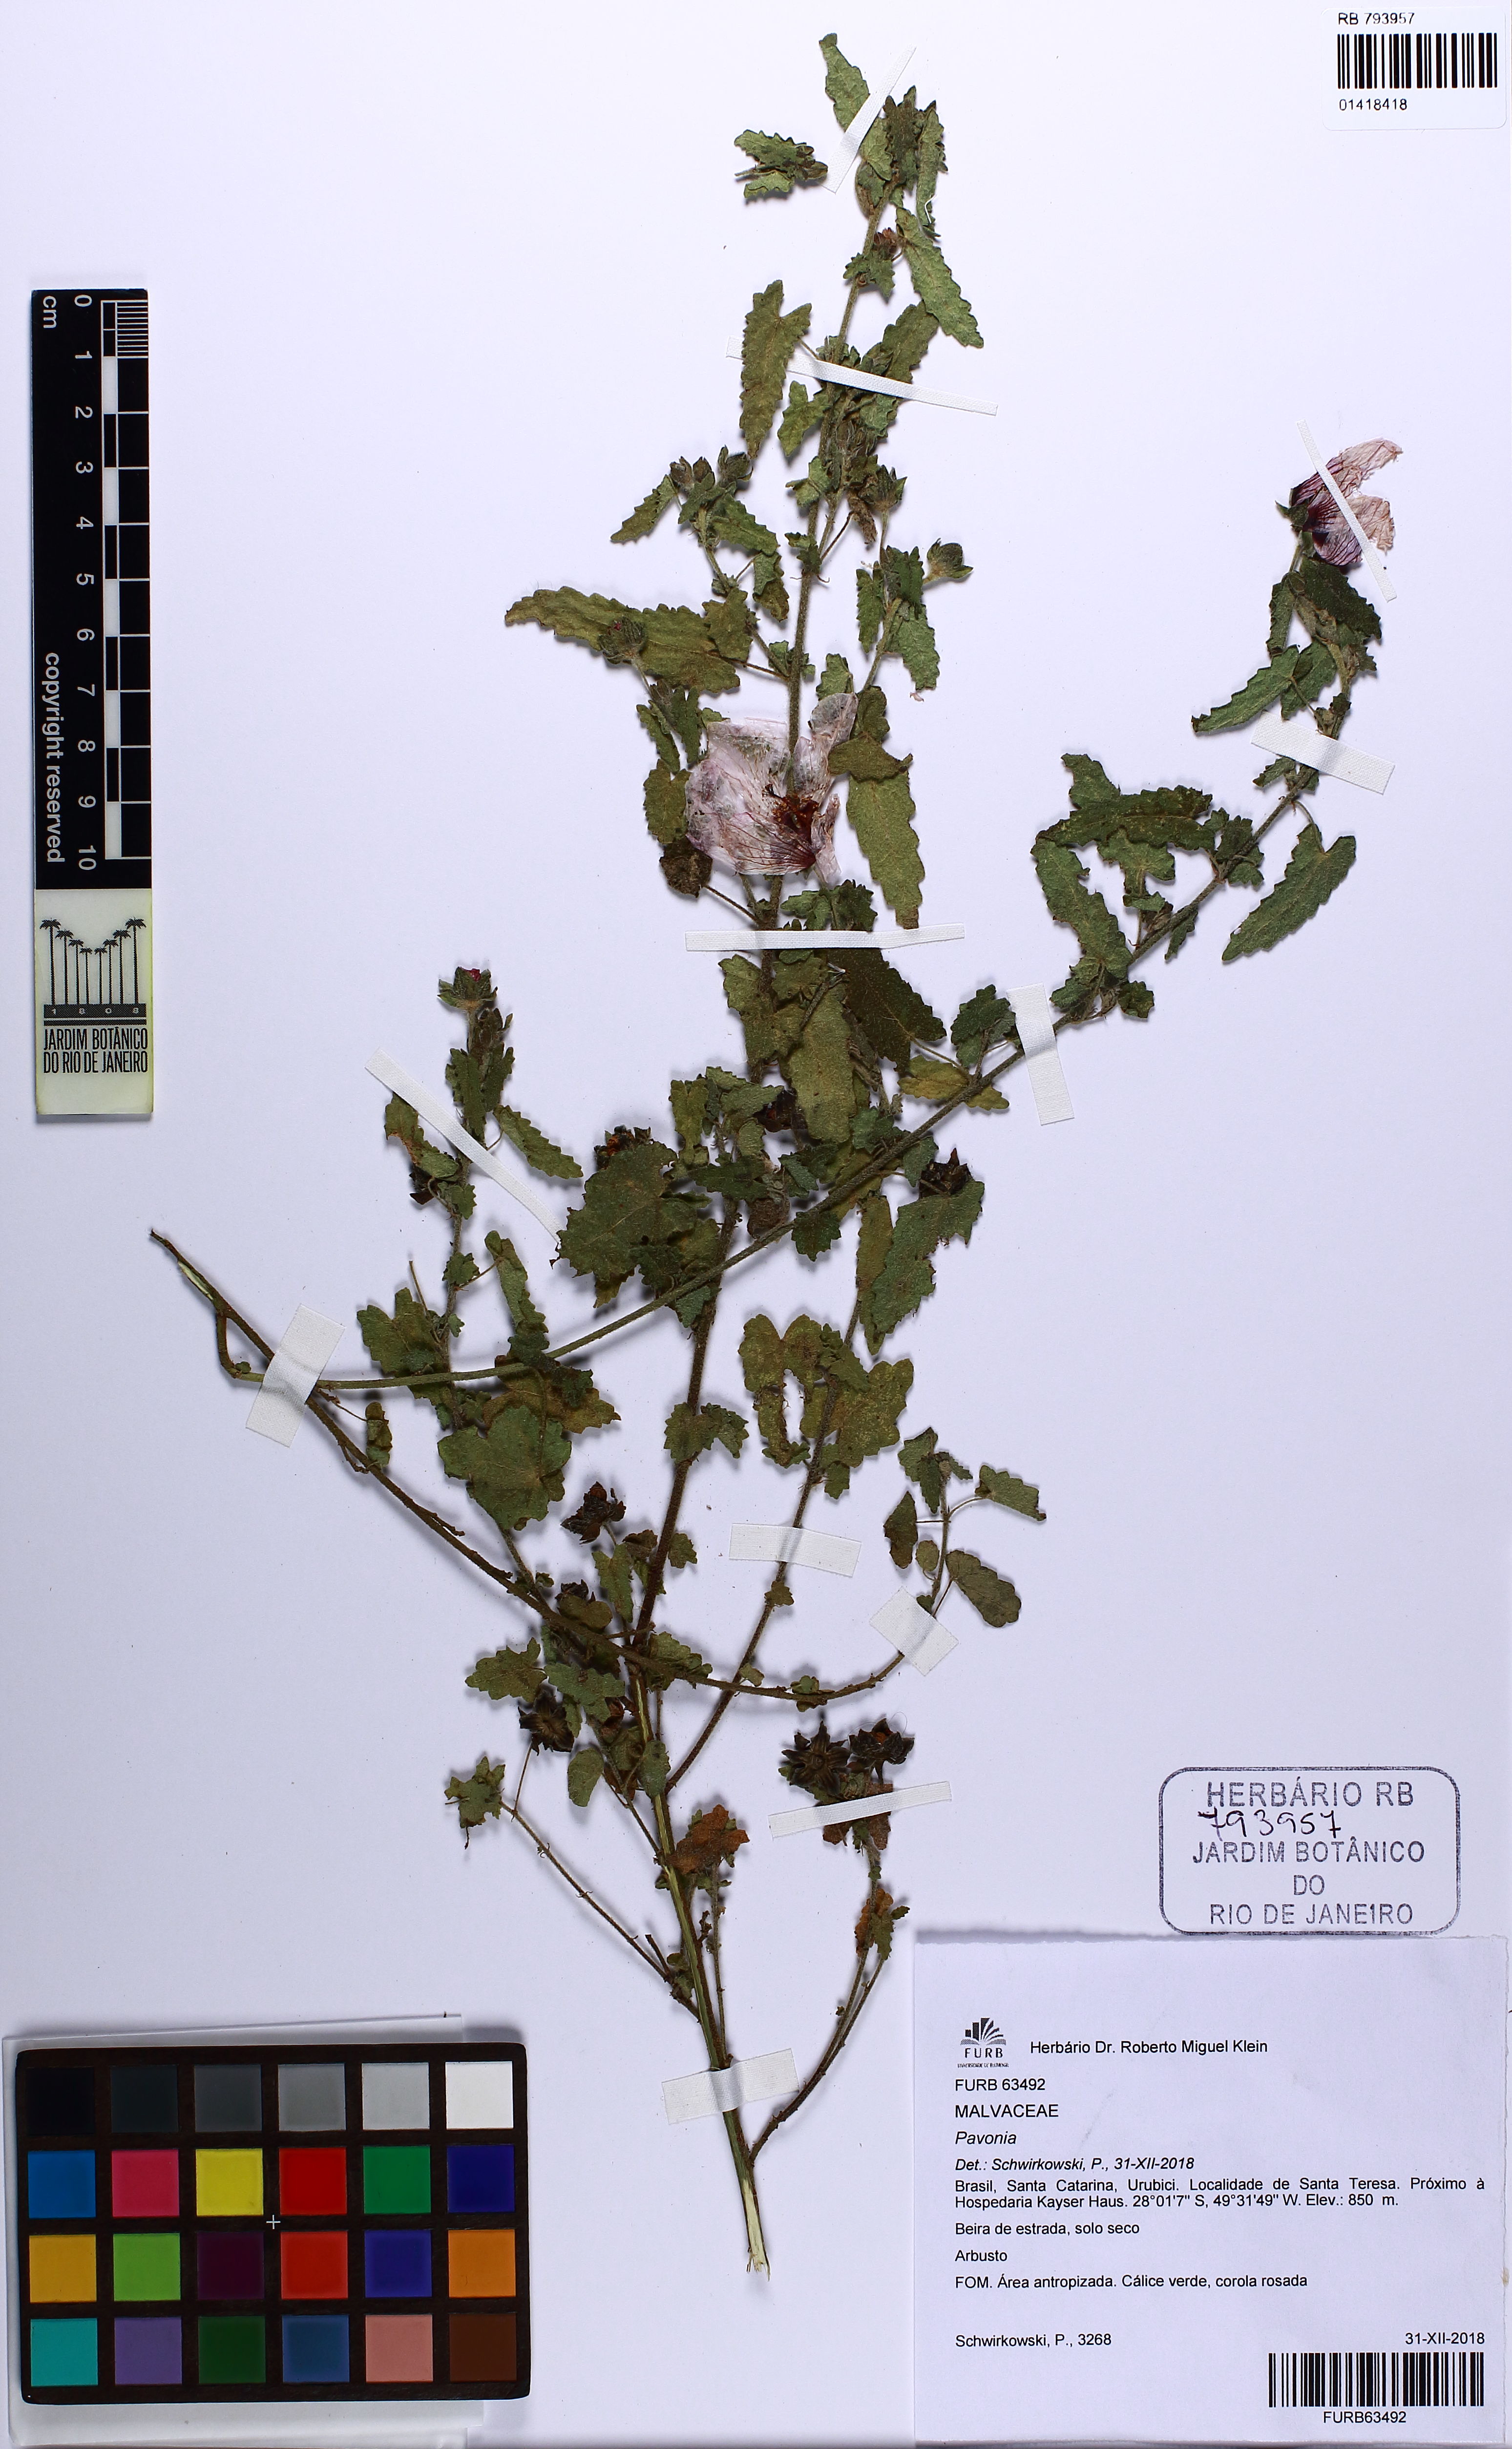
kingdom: Plantae
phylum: Tracheophyta
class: Magnoliopsida
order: Malvales
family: Malvaceae
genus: Pavonia
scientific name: Pavonia salmonea
